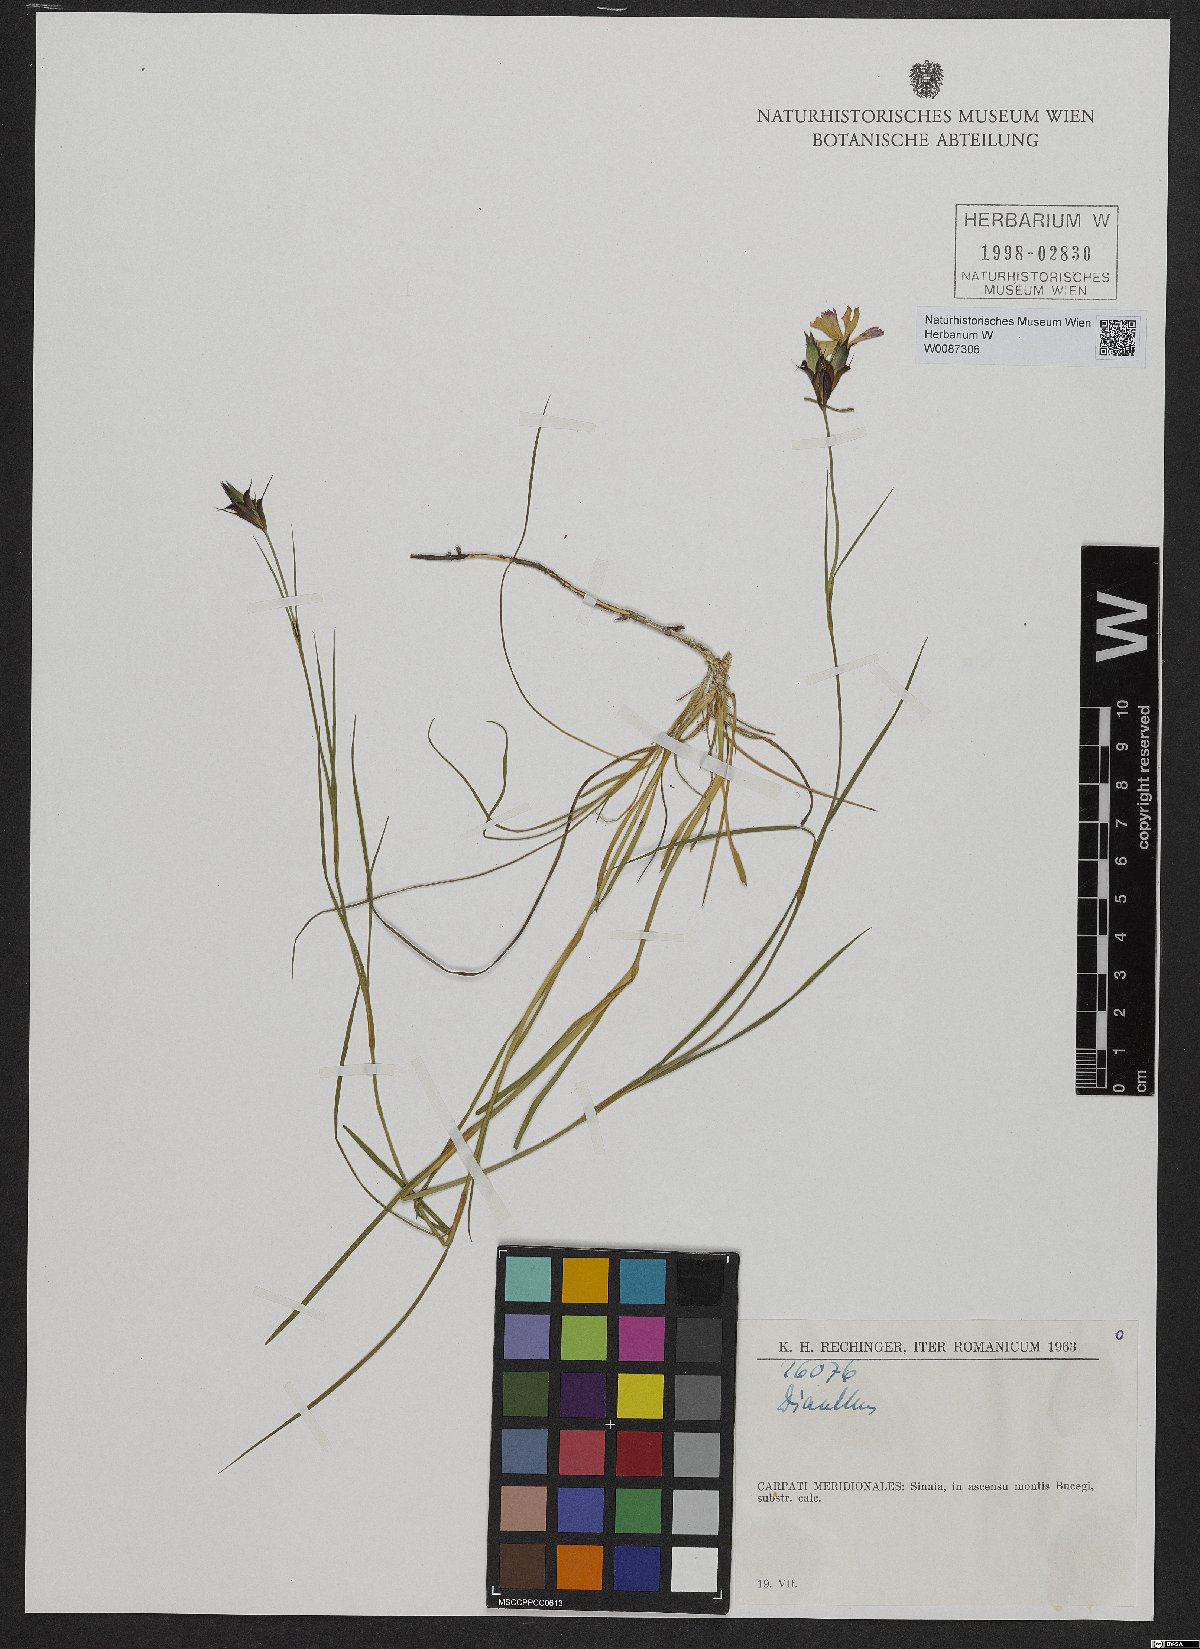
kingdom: Plantae
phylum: Tracheophyta
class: Magnoliopsida
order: Caryophyllales
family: Caryophyllaceae
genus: Dianthus
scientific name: Dianthus
